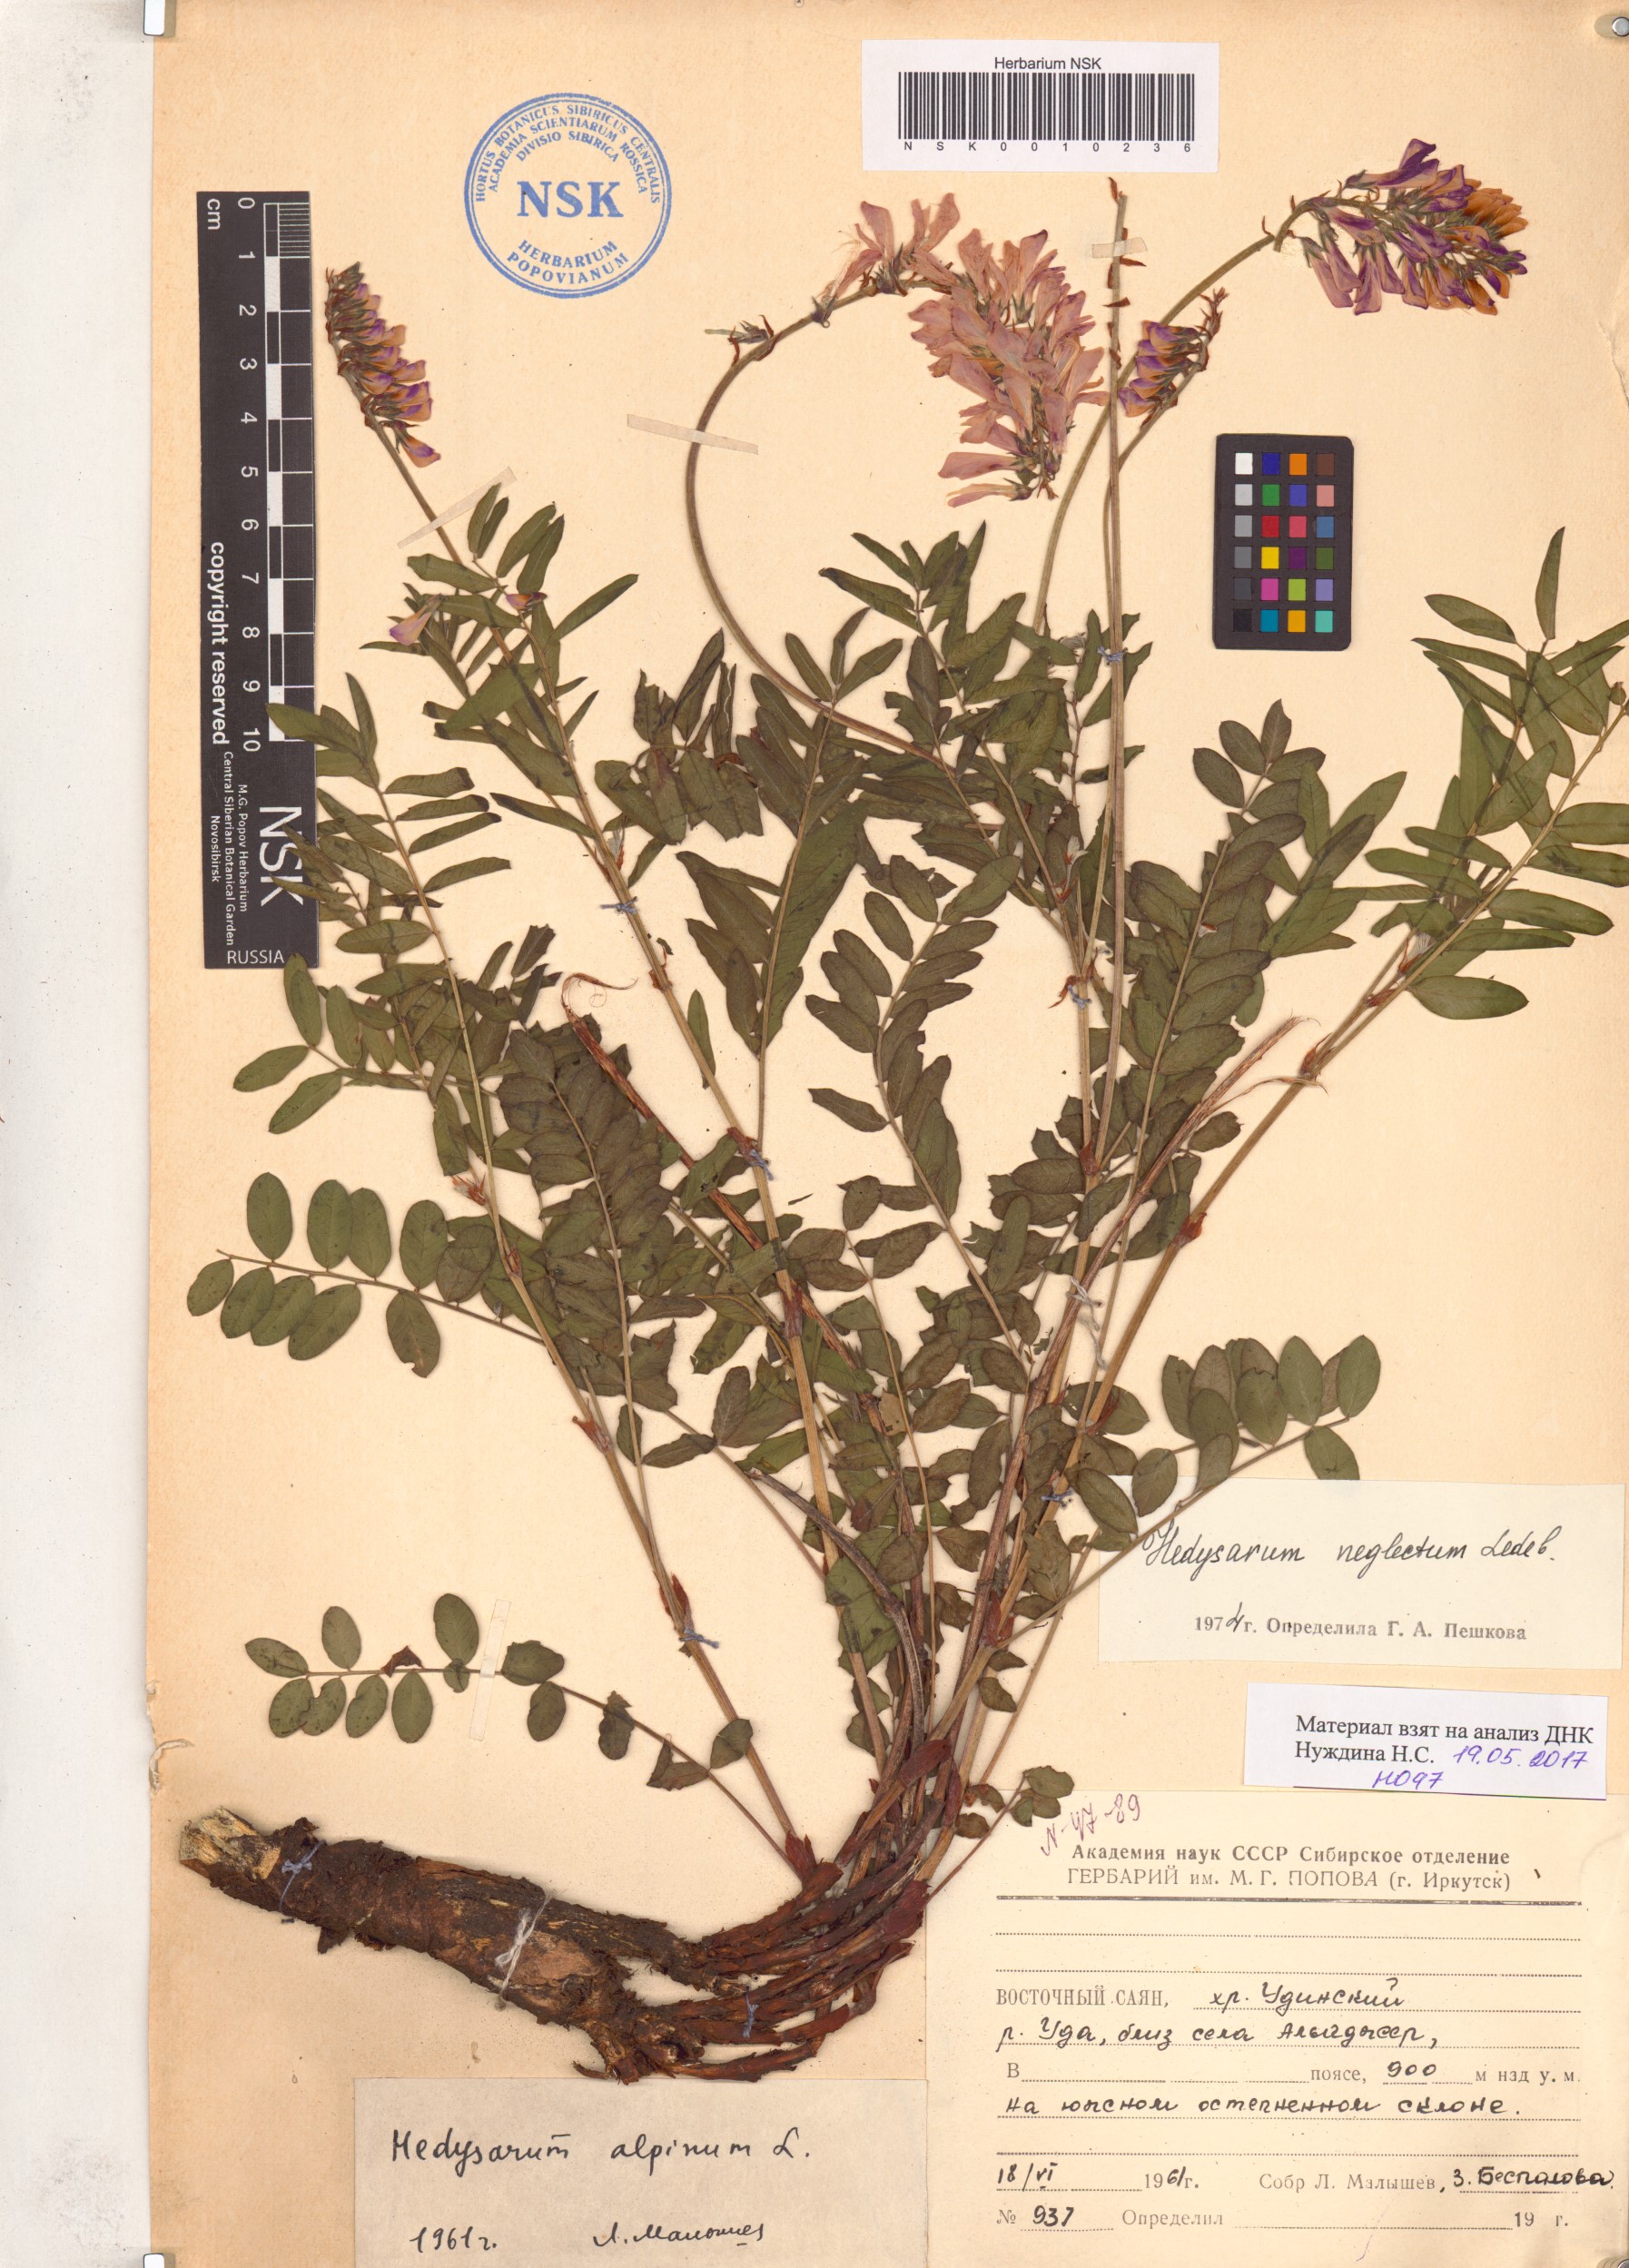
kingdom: Plantae
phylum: Tracheophyta
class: Magnoliopsida
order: Fabales
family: Fabaceae
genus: Hedysarum
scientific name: Hedysarum neglectum
